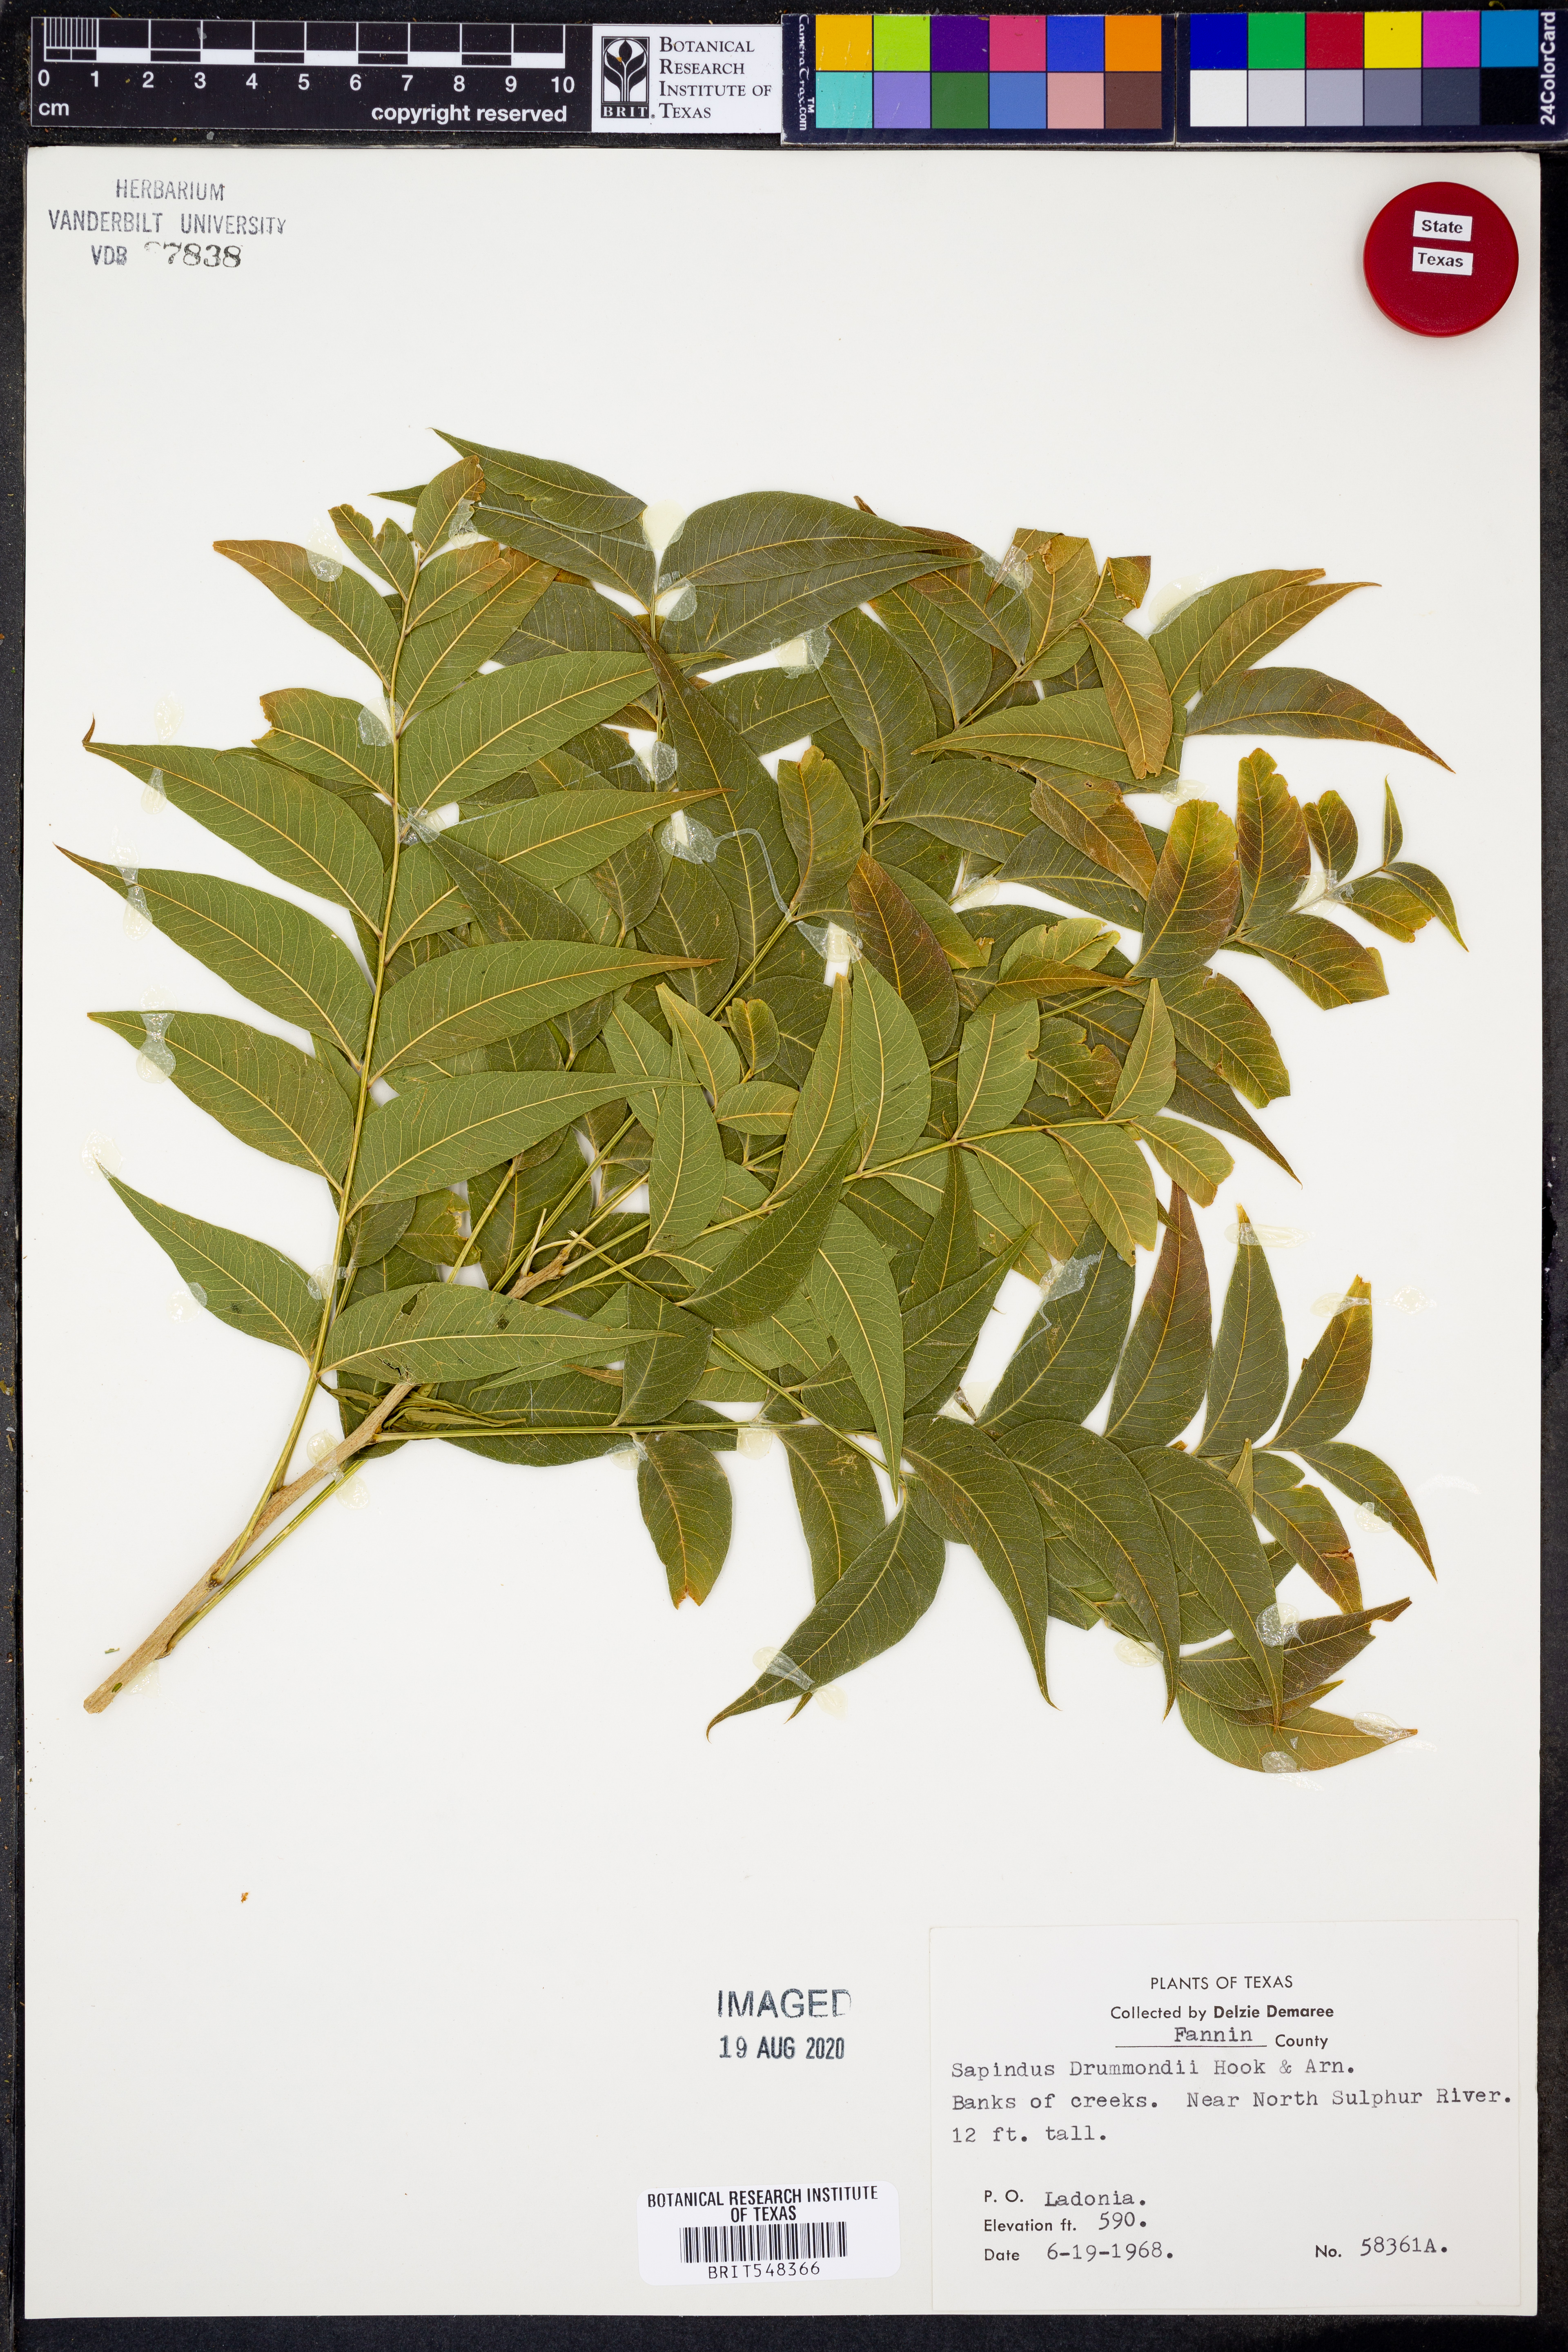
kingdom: Plantae
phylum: Tracheophyta
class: Magnoliopsida
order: Sapindales
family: Sapindaceae
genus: Sapindus
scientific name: Sapindus drummondii
